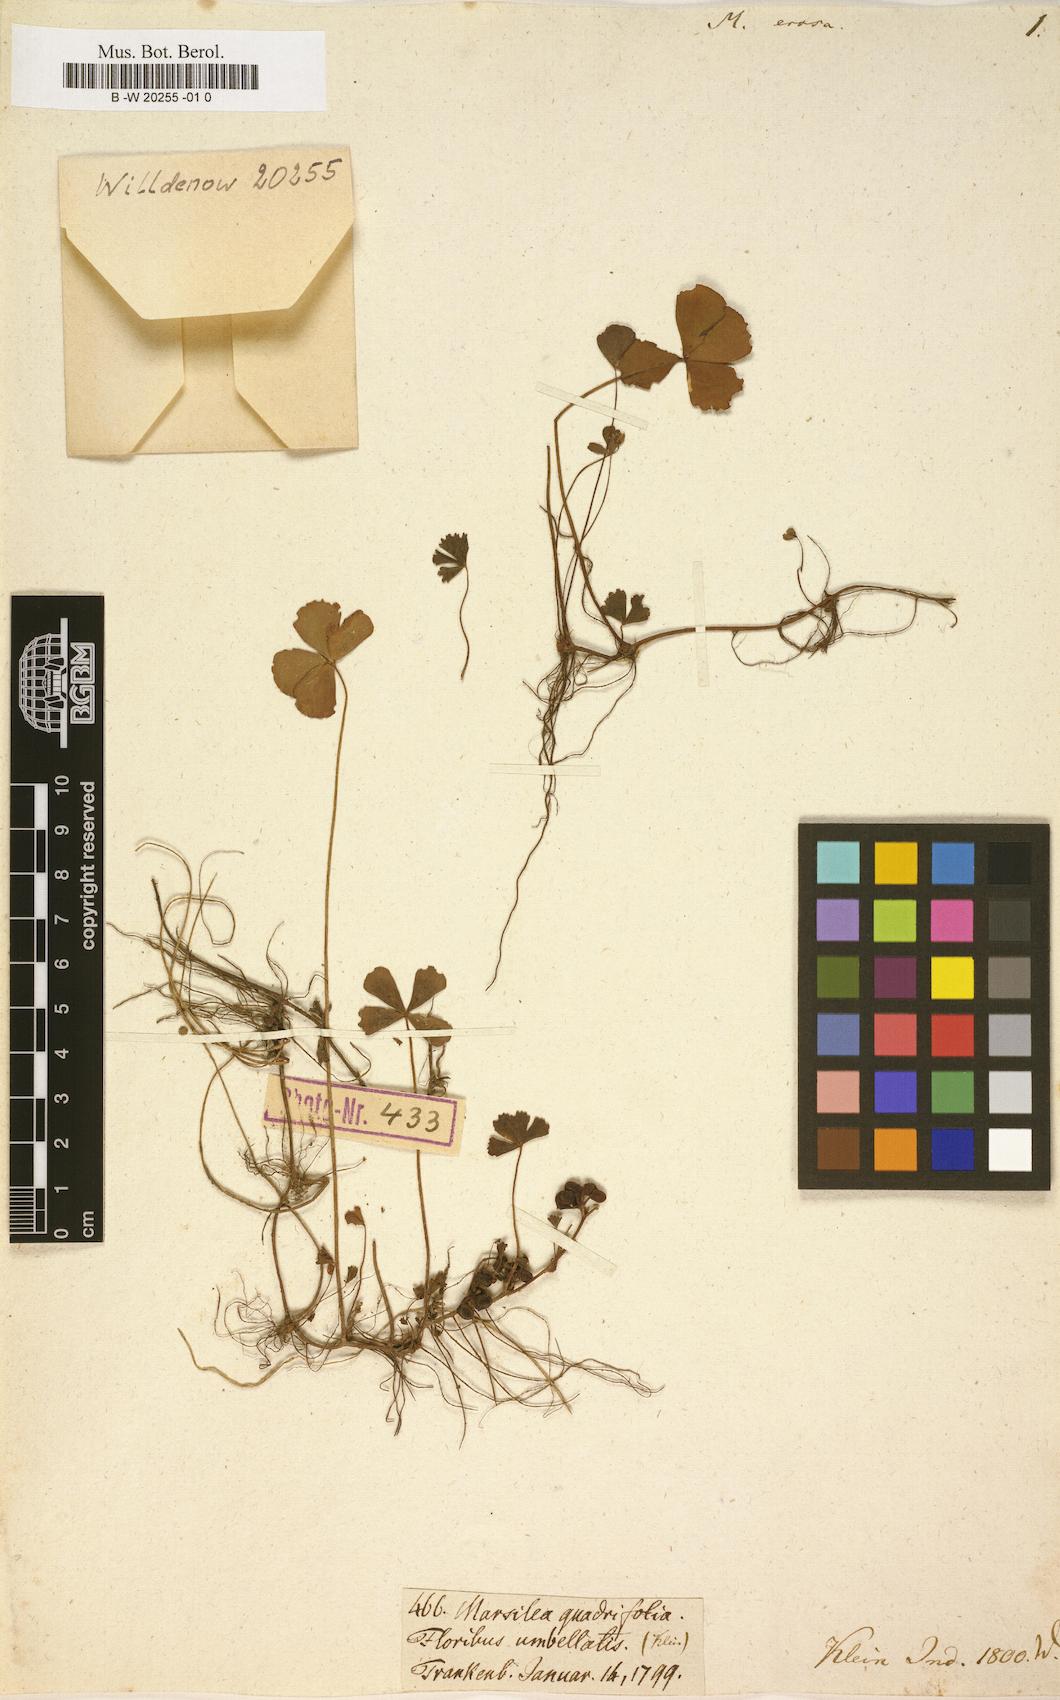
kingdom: Plantae
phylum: Tracheophyta
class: Polypodiopsida
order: Salviniales
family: Marsileaceae
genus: Marsilea
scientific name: Marsilea minuta
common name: Dwarf waterclover
